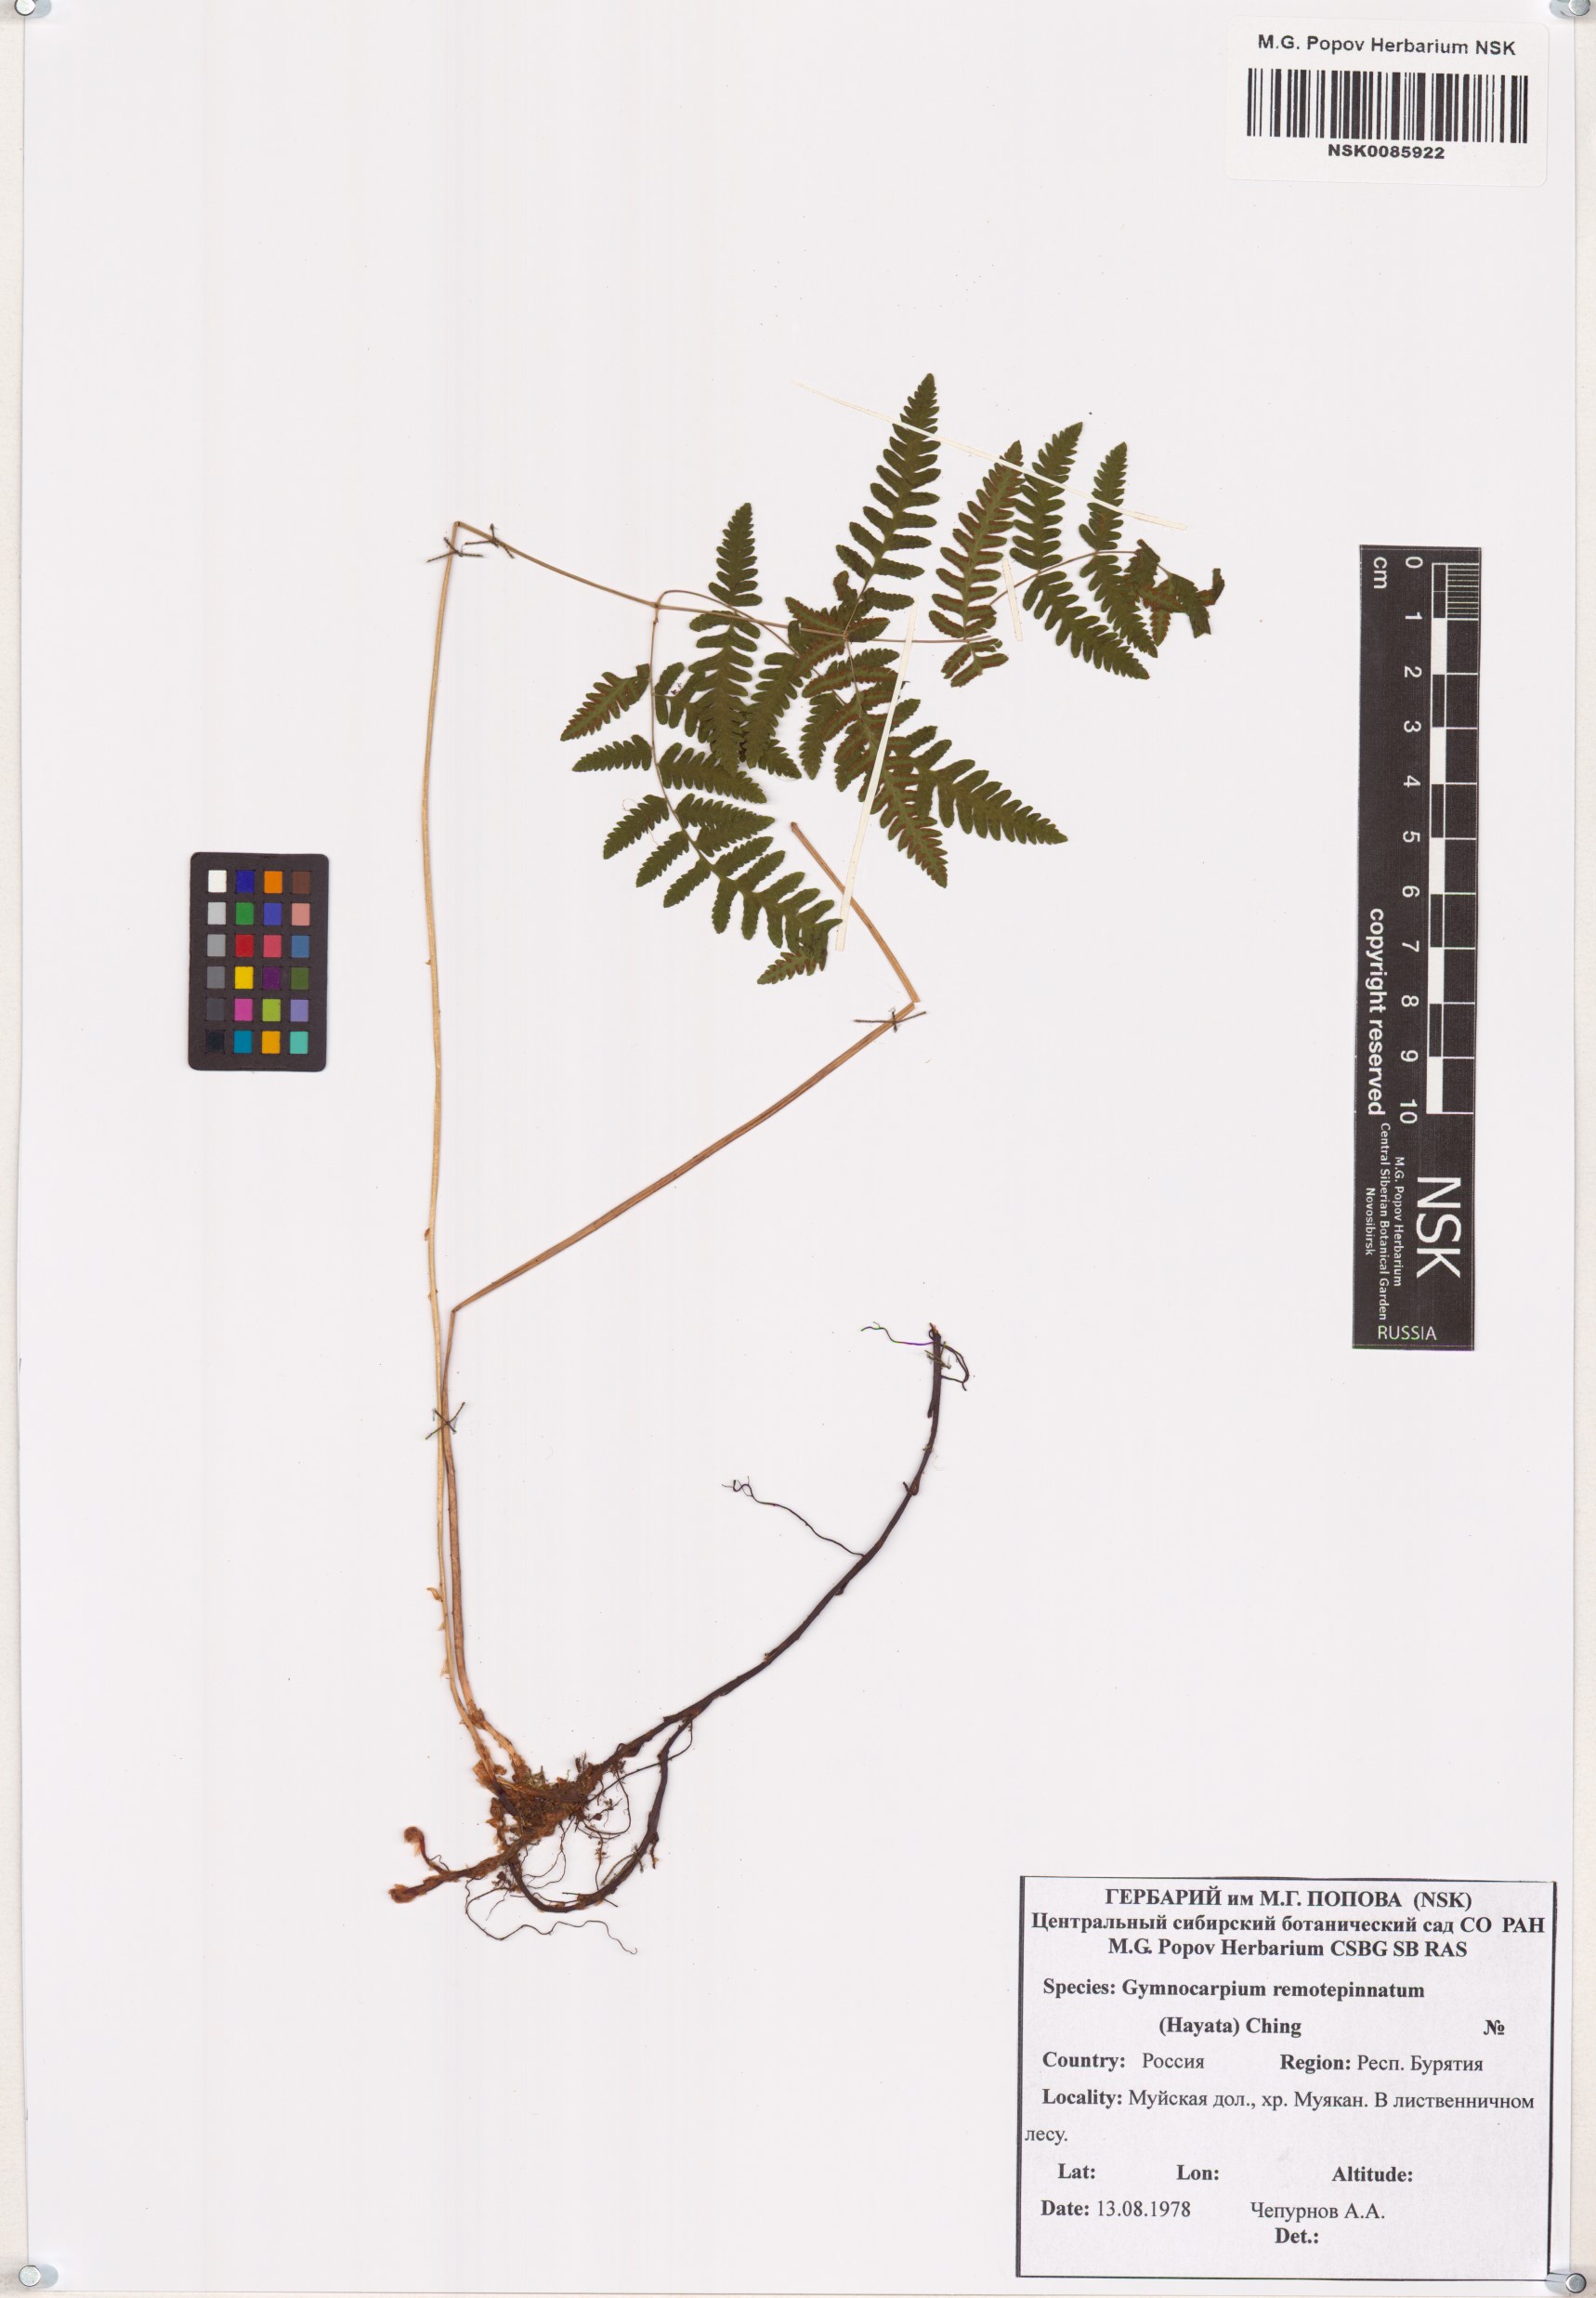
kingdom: Plantae
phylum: Tracheophyta
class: Polypodiopsida
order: Polypodiales
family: Cystopteridaceae
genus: Gymnocarpium
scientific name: Gymnocarpium remotepinnatum
